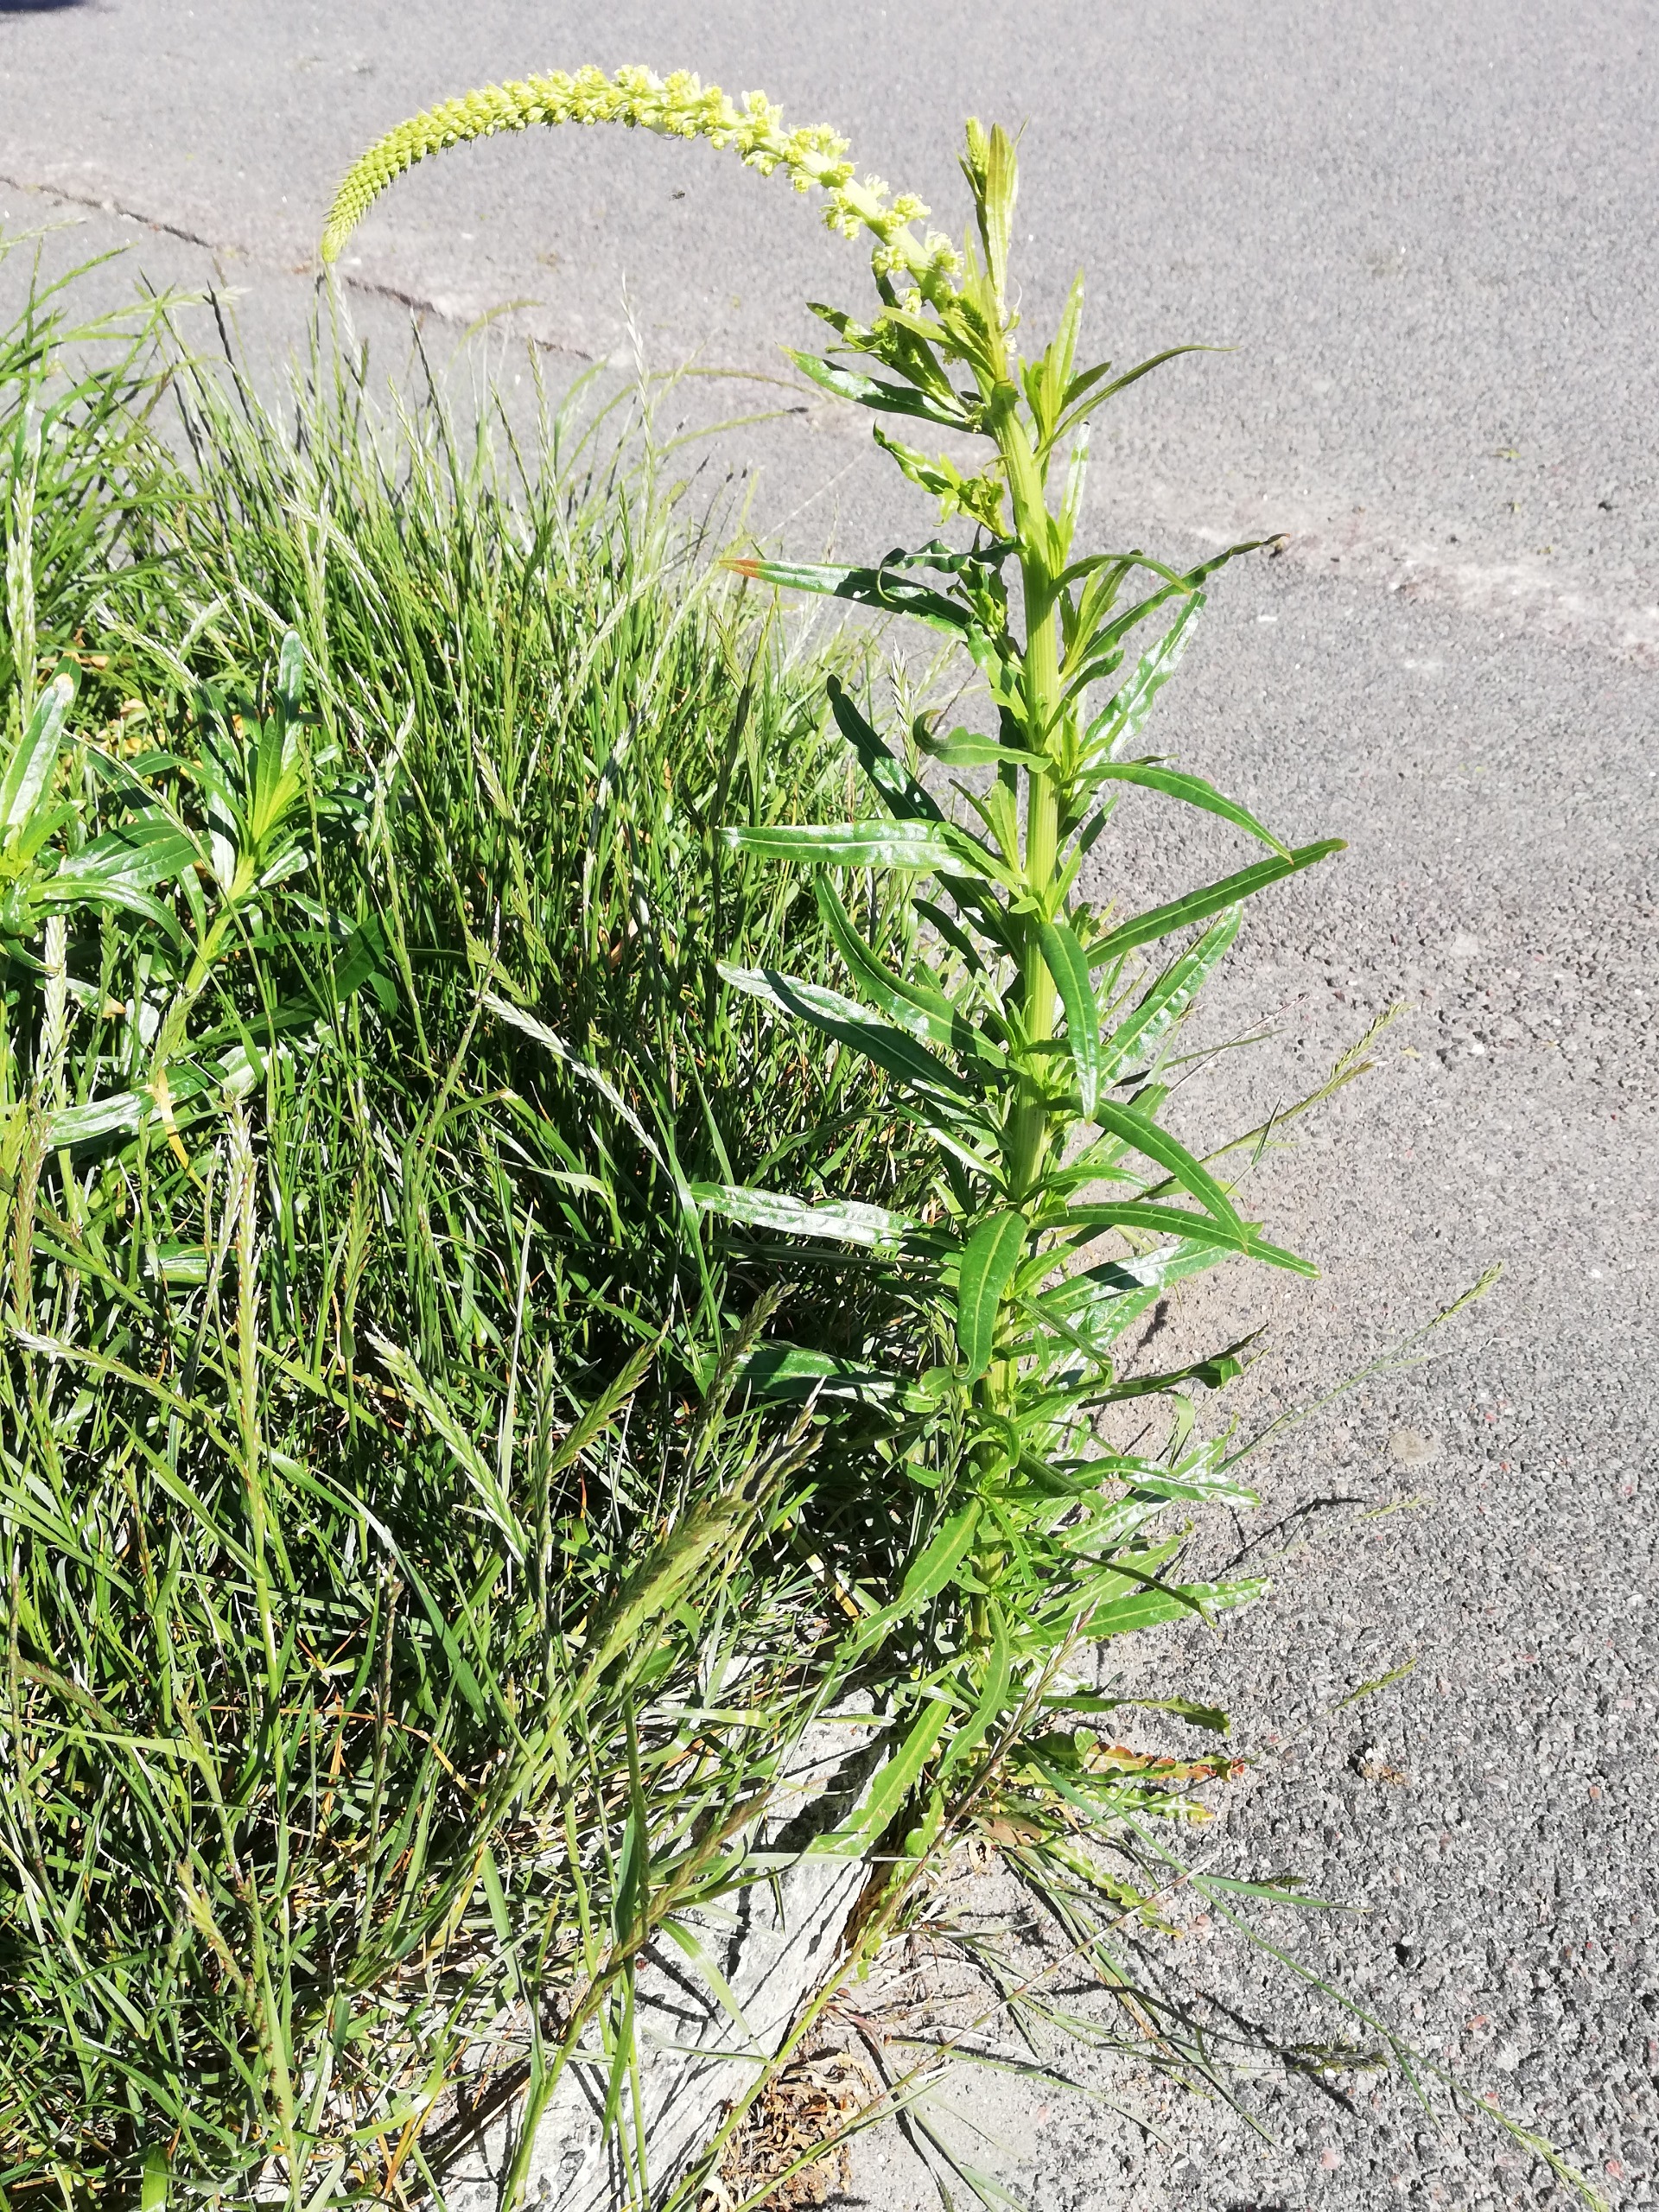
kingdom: Plantae
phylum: Tracheophyta
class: Magnoliopsida
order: Brassicales
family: Resedaceae
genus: Reseda
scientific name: Reseda luteola
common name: Farve-reseda
